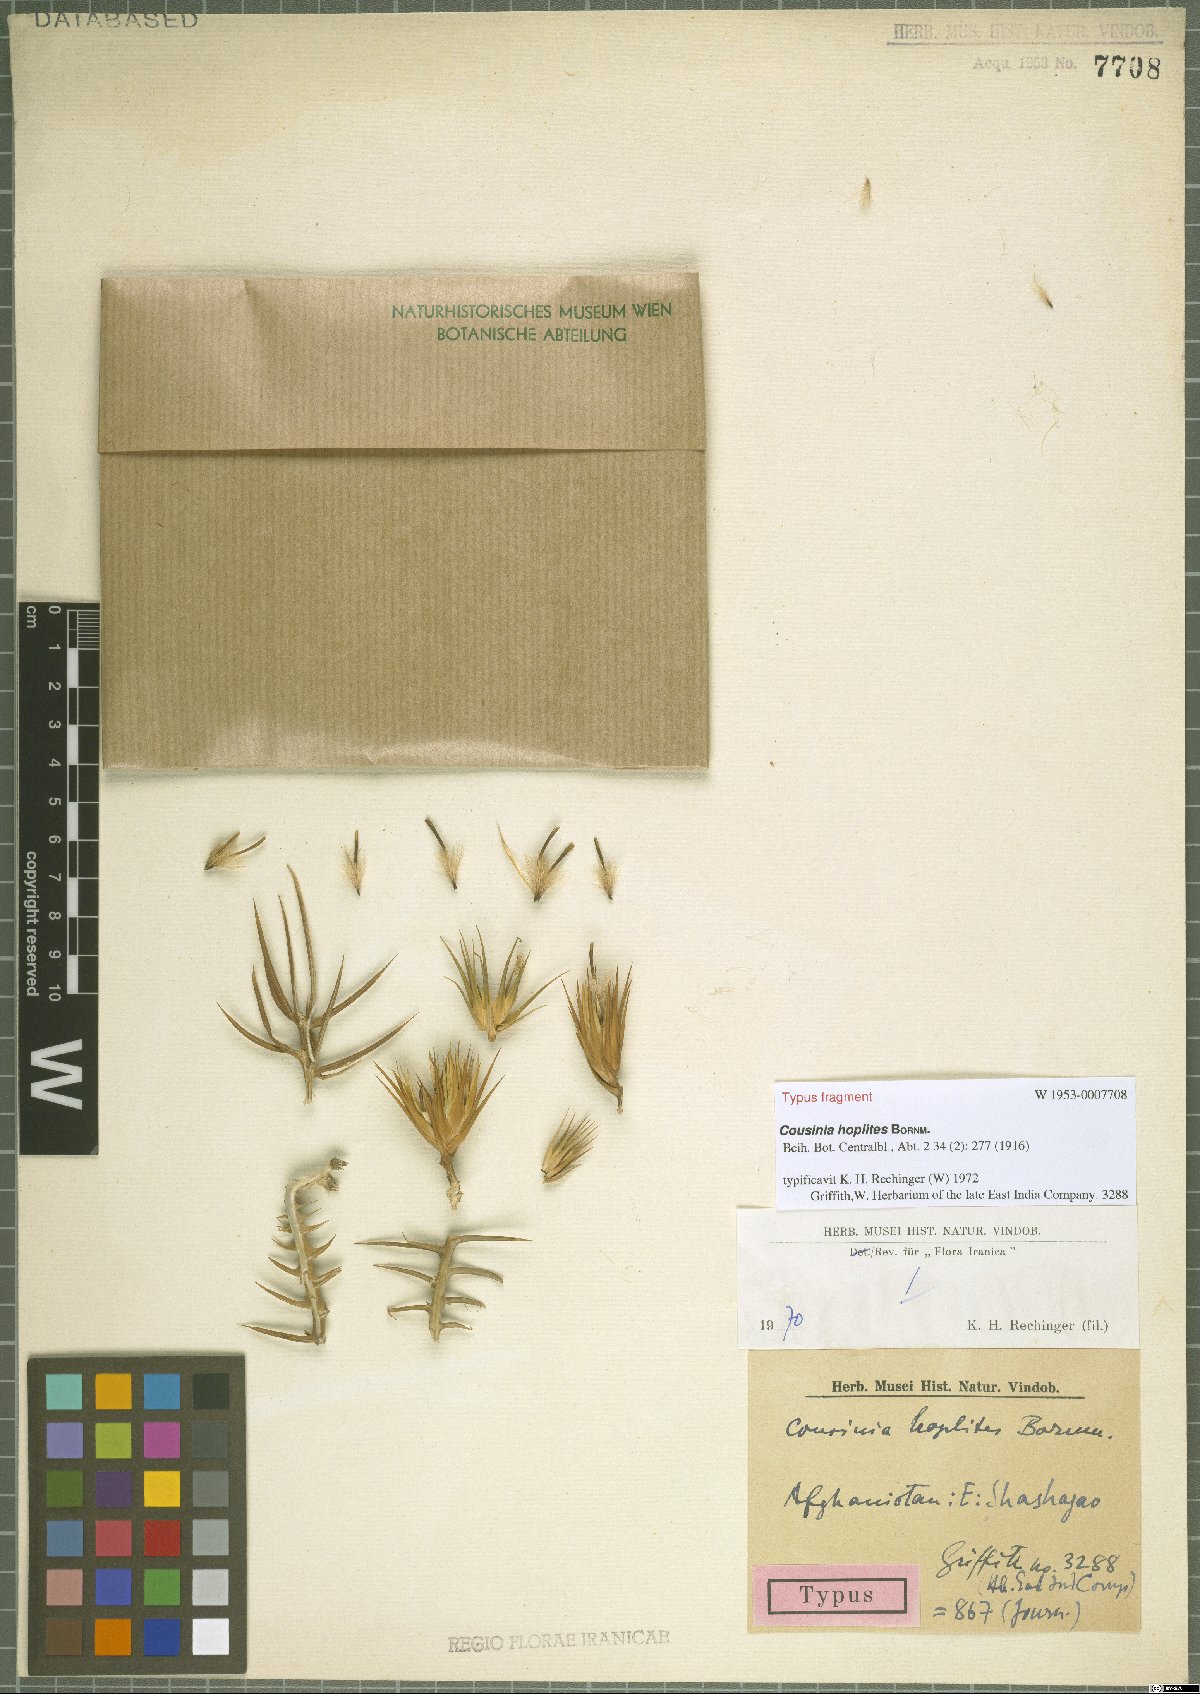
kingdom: Plantae
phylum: Tracheophyta
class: Magnoliopsida
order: Asterales
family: Asteraceae
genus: Cousinia
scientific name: Cousinia hoplites
